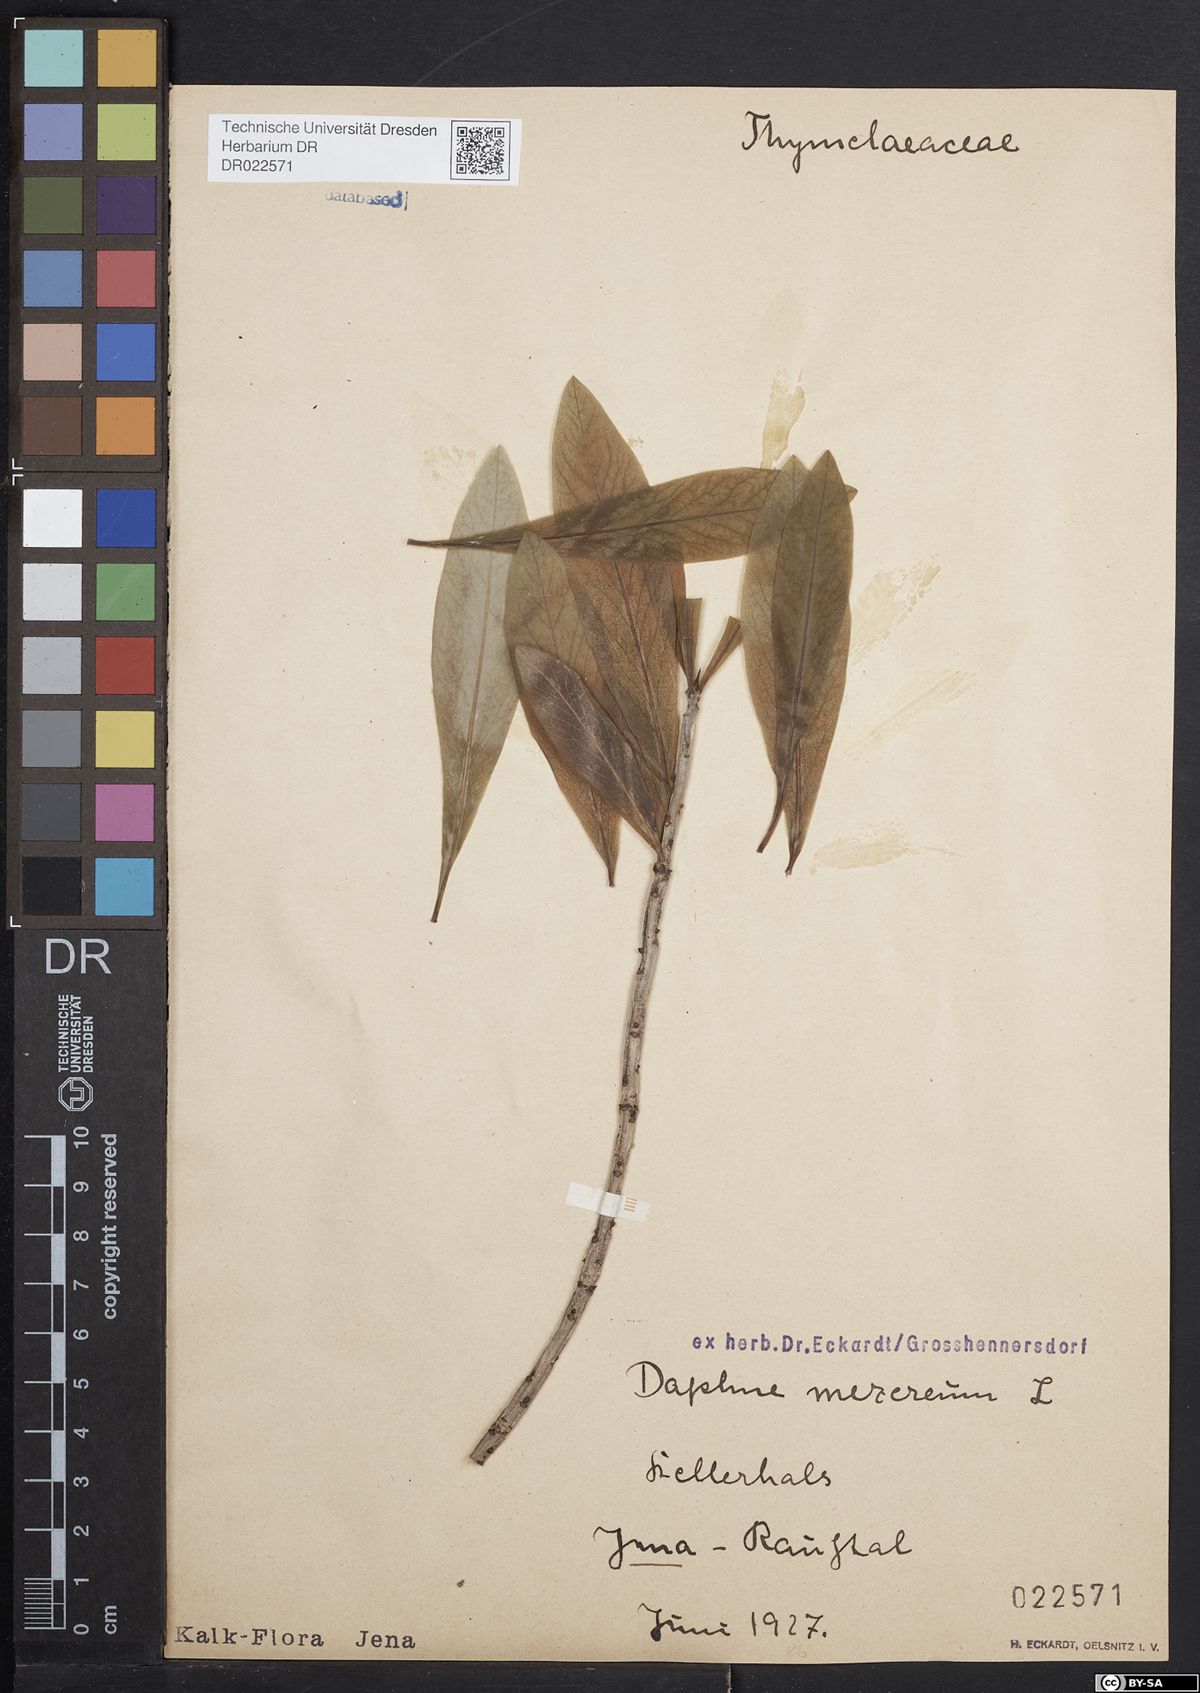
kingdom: Plantae
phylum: Tracheophyta
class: Magnoliopsida
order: Malvales
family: Thymelaeaceae
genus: Daphne
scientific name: Daphne mezereum
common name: Mezereon
